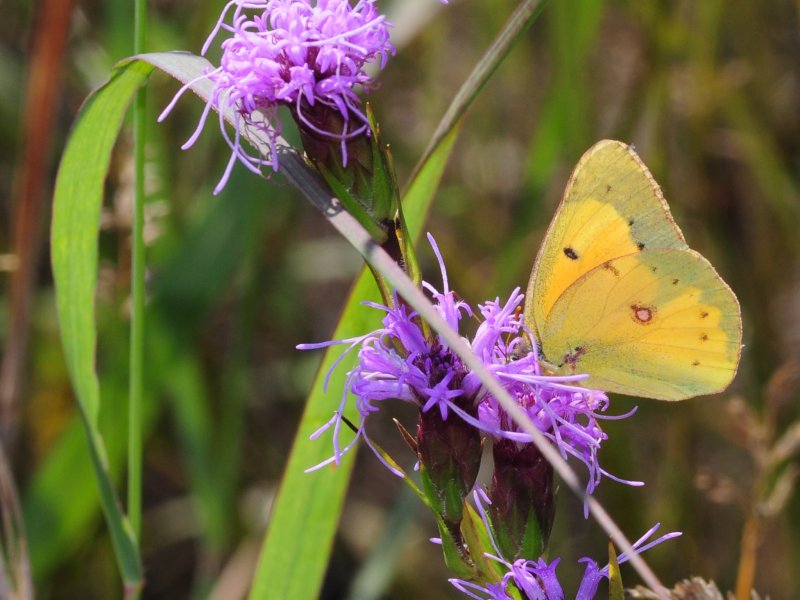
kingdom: Animalia
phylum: Arthropoda
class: Insecta
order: Lepidoptera
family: Pieridae
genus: Colias
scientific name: Colias eurytheme
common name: Orange Sulphur
